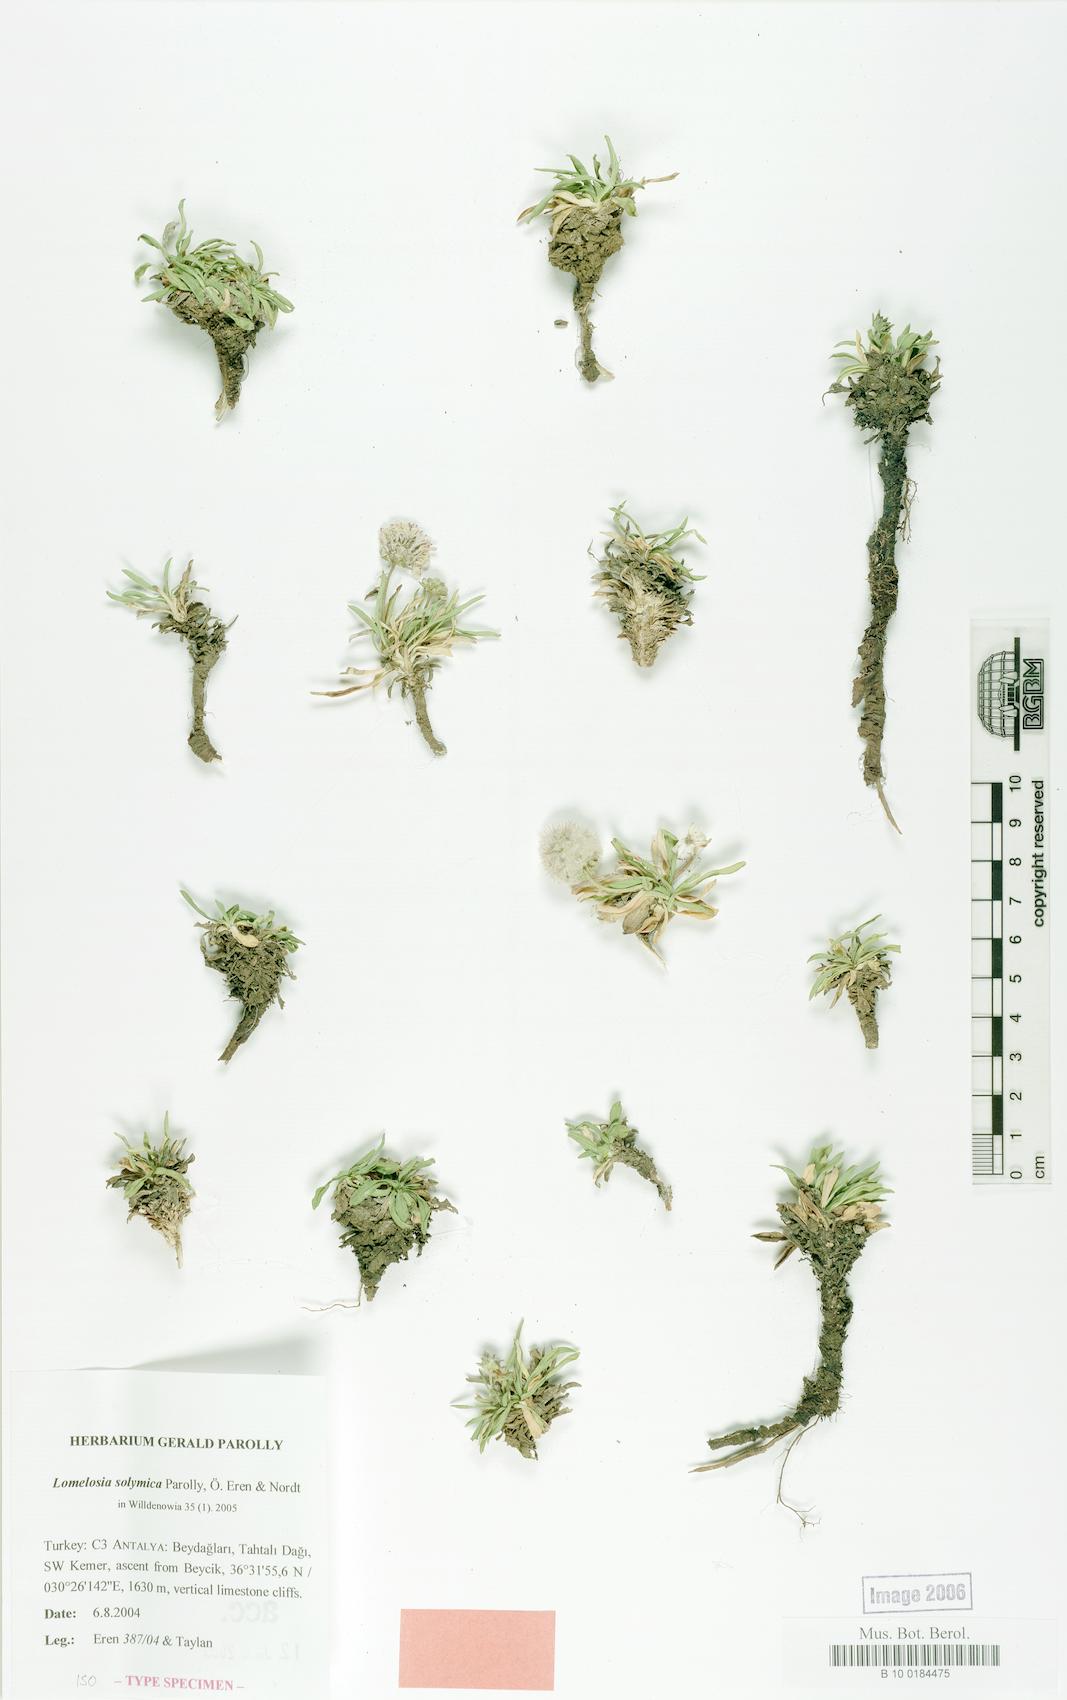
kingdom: Plantae
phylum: Tracheophyta
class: Magnoliopsida
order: Dipsacales
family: Caprifoliaceae
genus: Scabiosa
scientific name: Scabiosa solymica
